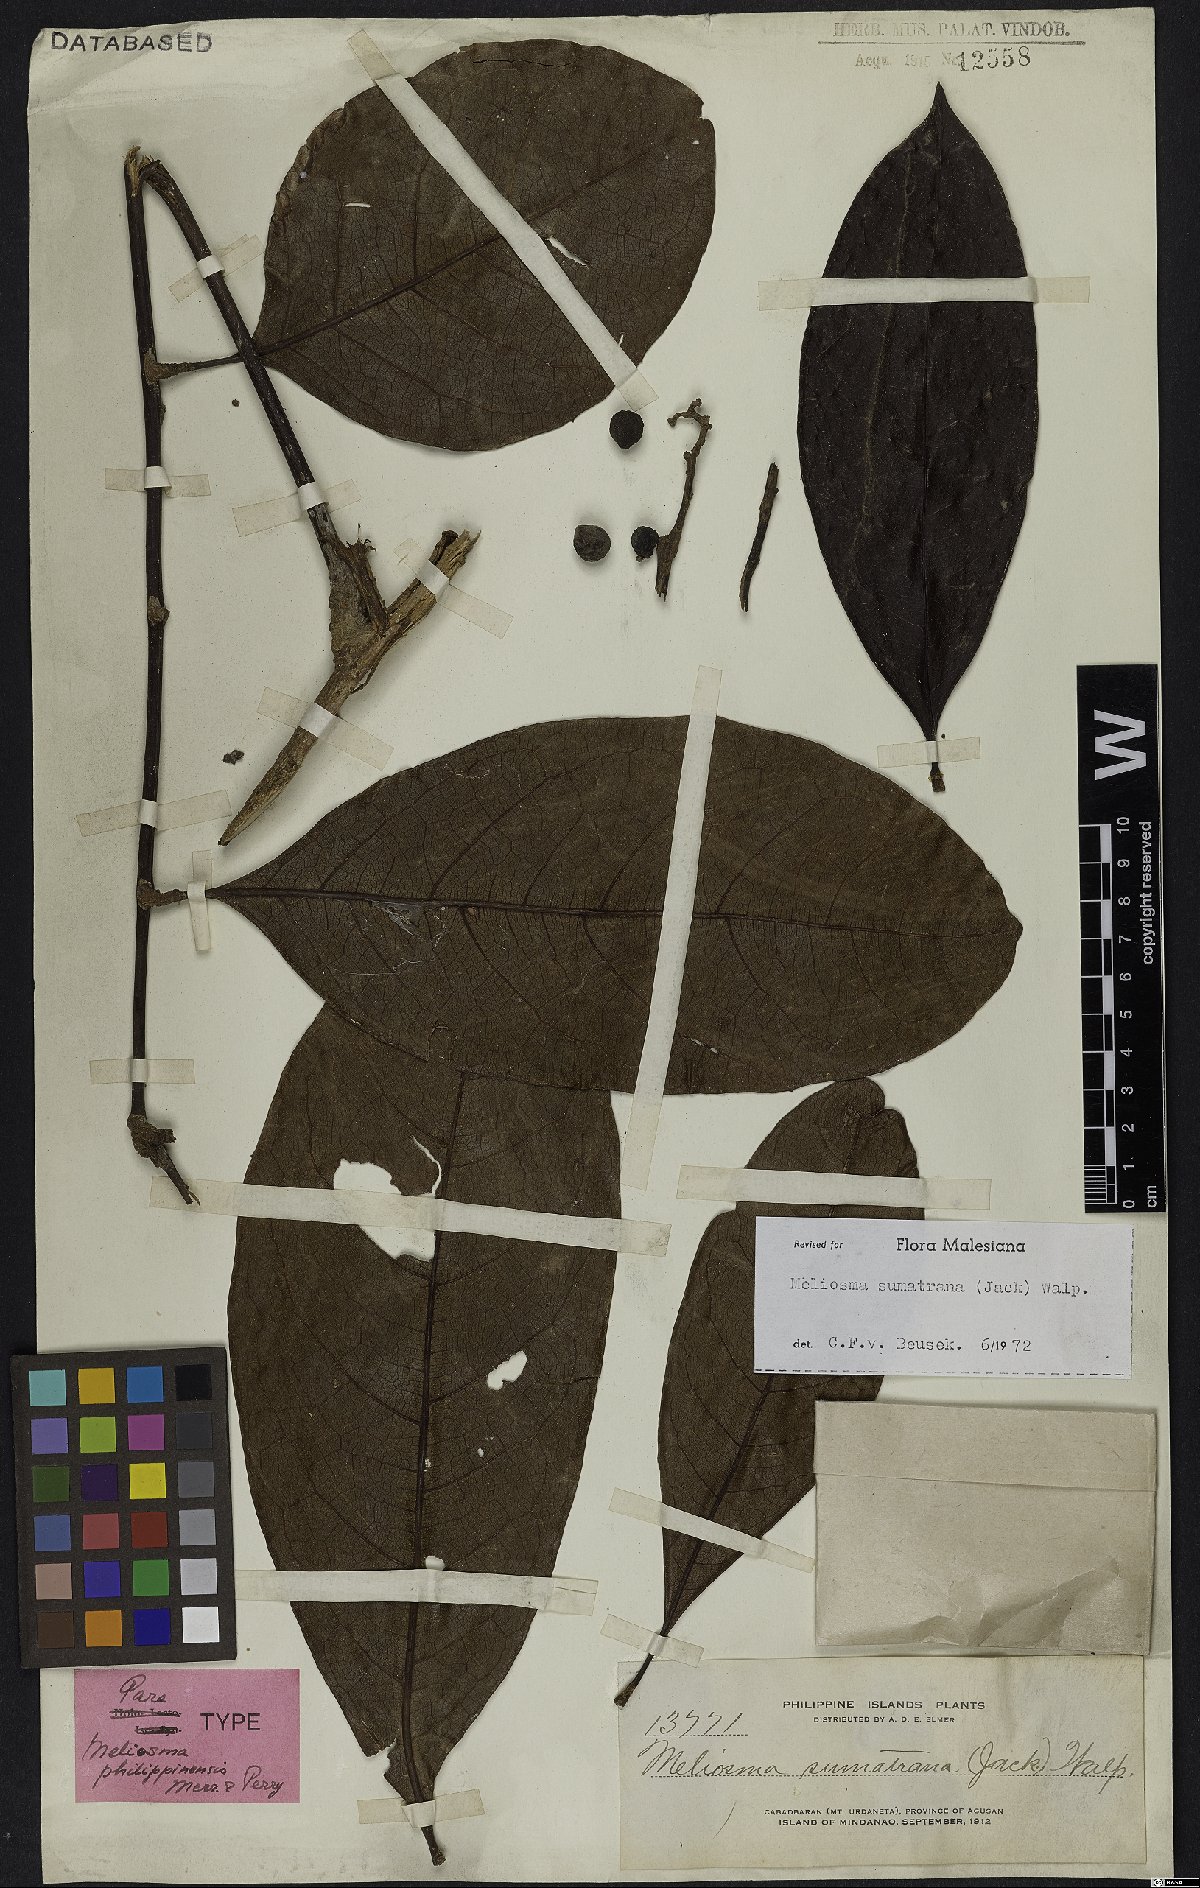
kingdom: Plantae
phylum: Tracheophyta
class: Magnoliopsida
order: Proteales
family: Sabiaceae
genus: Meliosma
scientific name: Meliosma sumatrana
